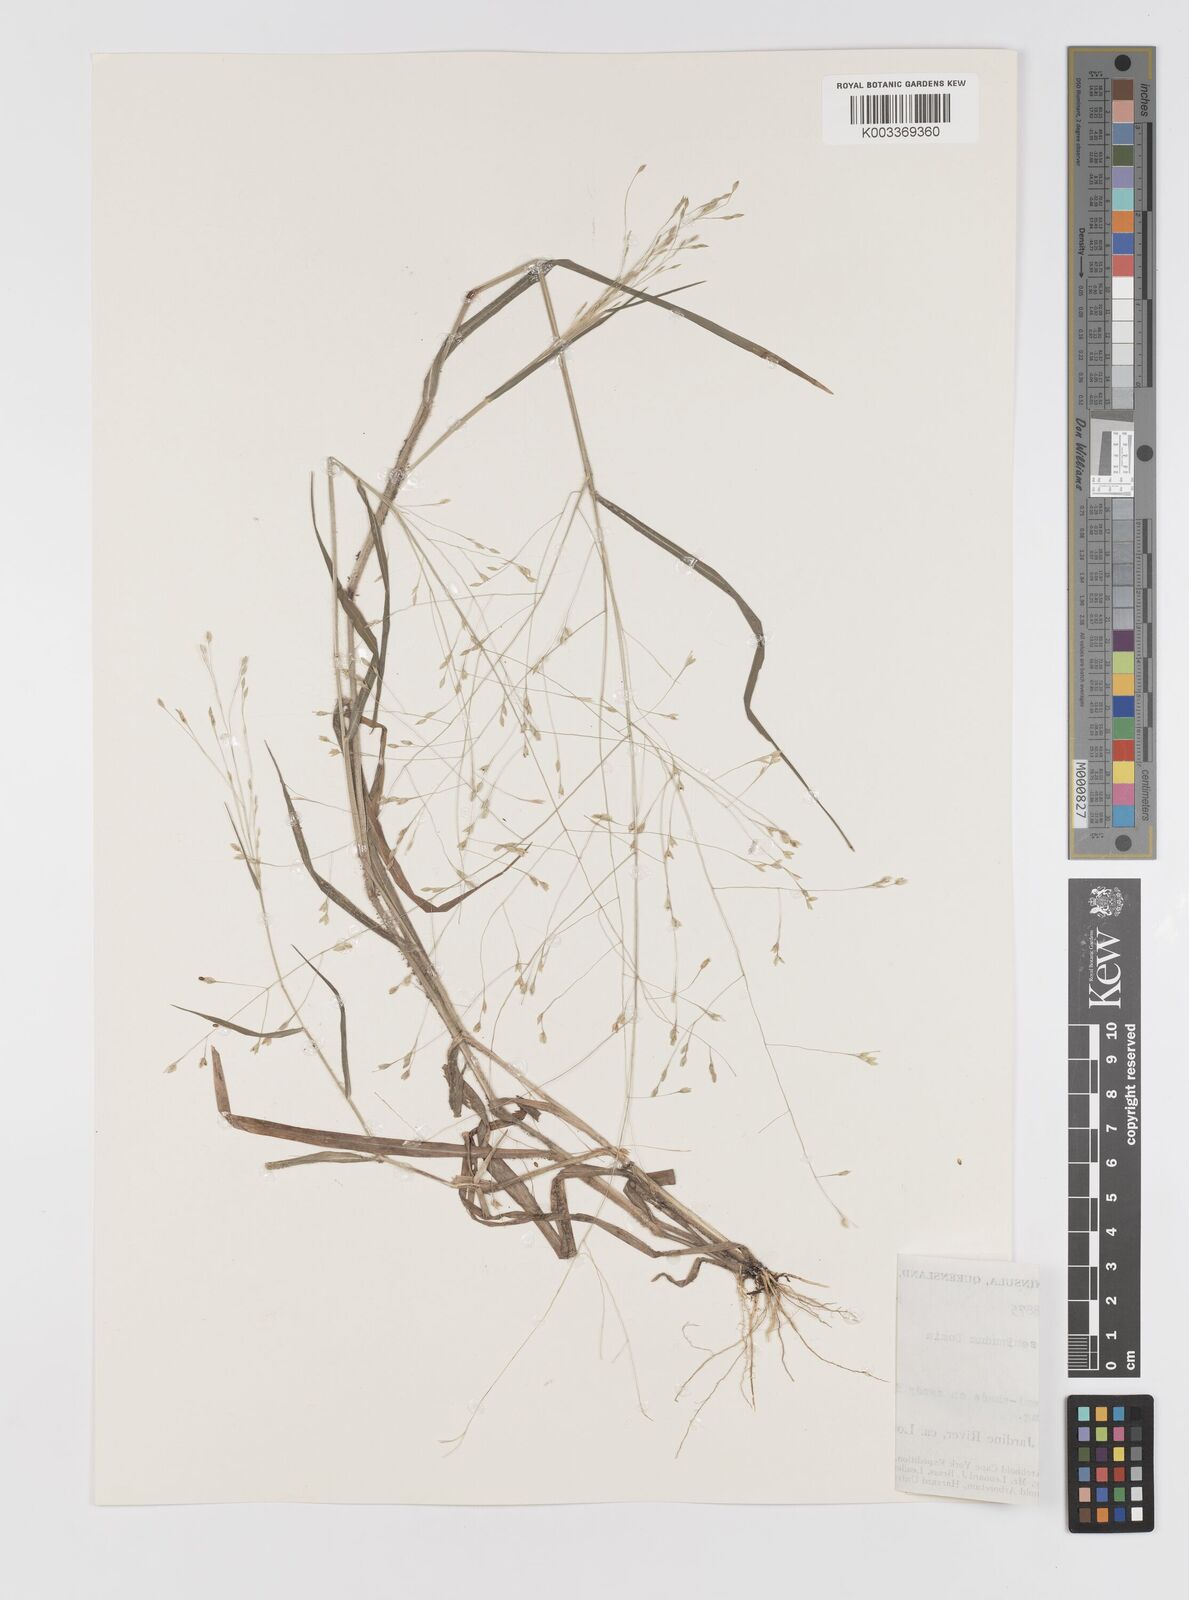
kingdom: Plantae
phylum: Tracheophyta
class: Liliopsida
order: Poales
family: Poaceae
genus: Panicum
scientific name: Panicum seminudum
